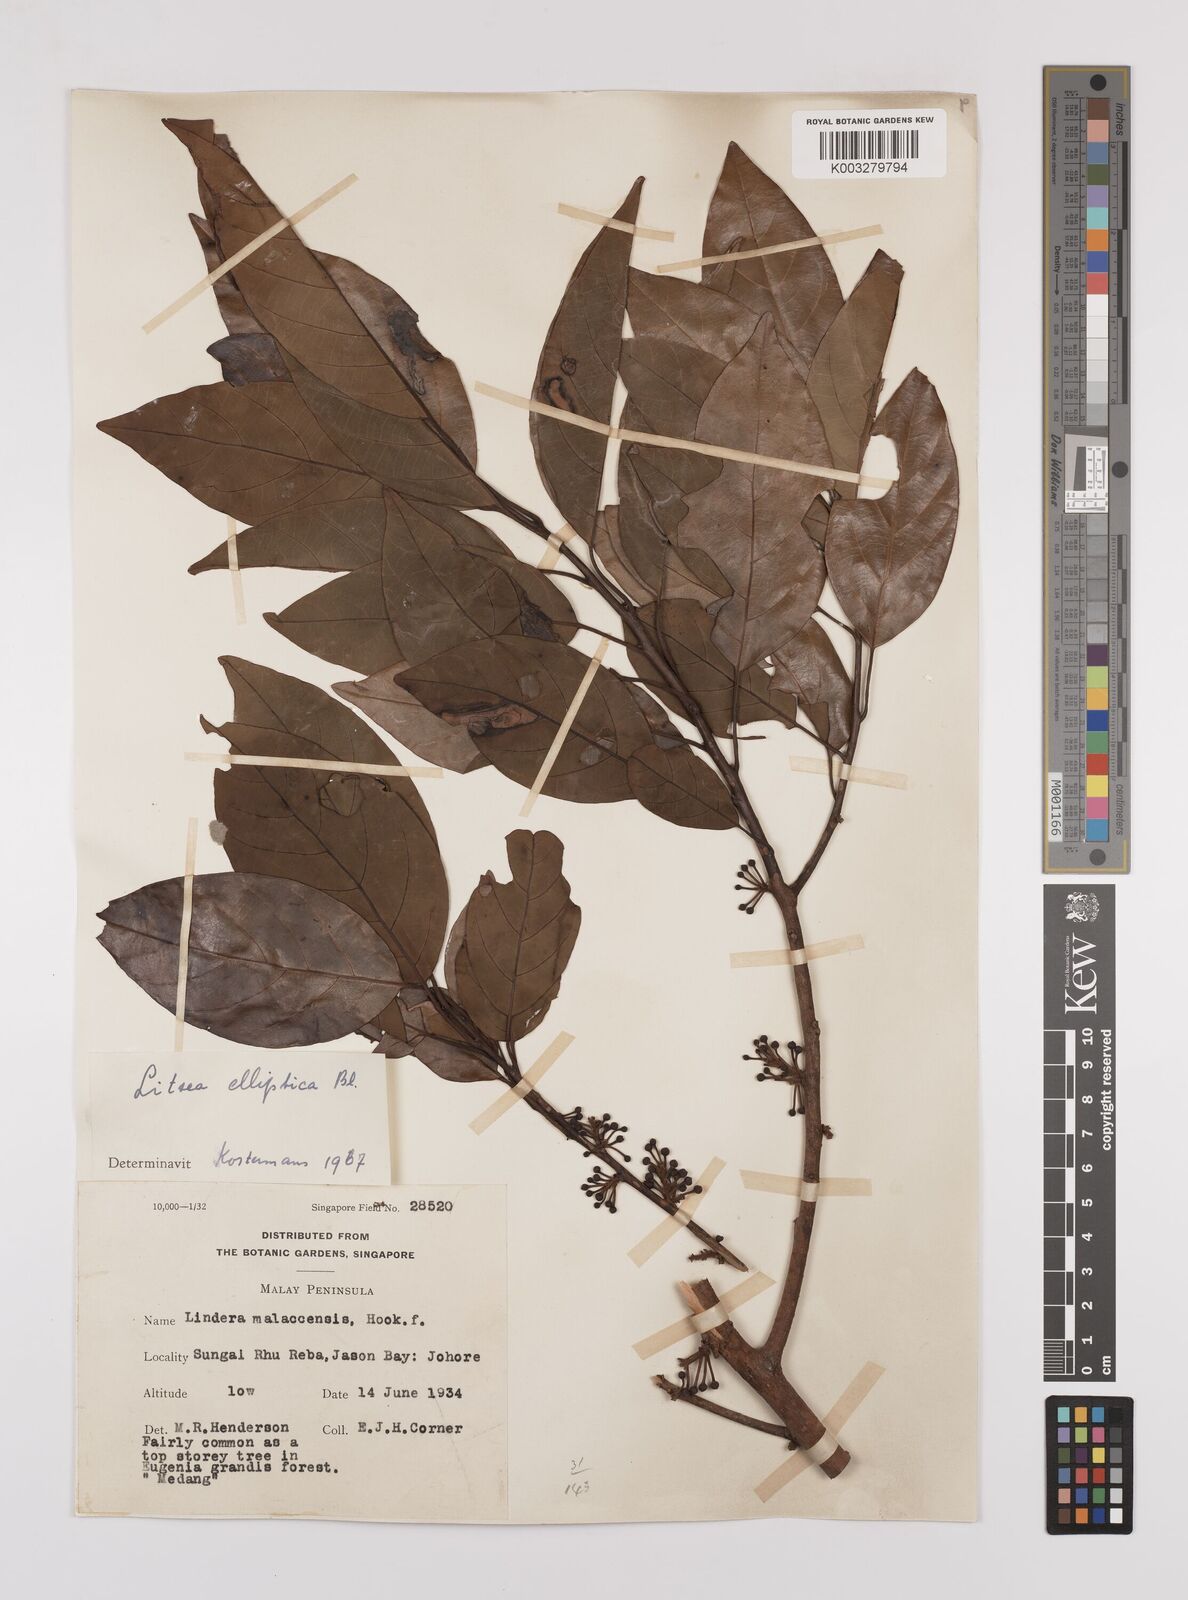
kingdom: Plantae
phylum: Tracheophyta
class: Magnoliopsida
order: Laurales
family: Lauraceae
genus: Litsea
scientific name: Litsea elliptica
